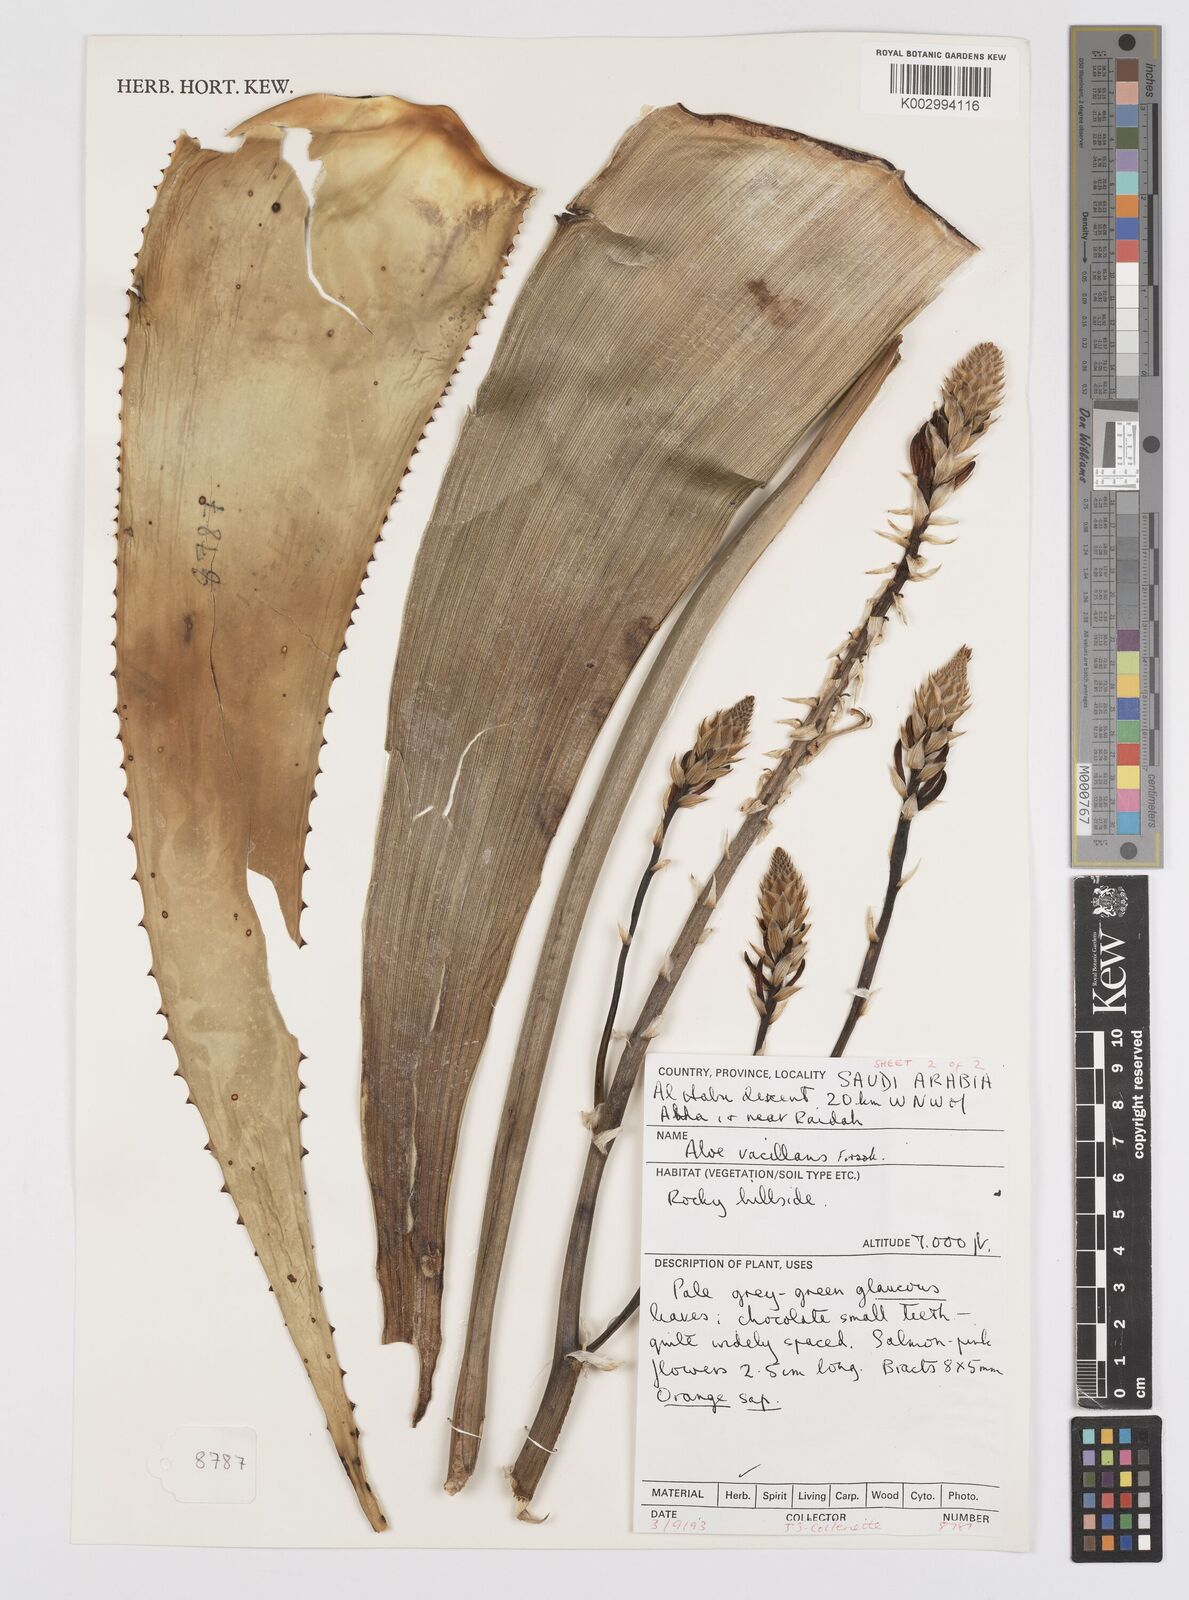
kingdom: Plantae
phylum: Tracheophyta
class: Liliopsida
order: Asparagales
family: Asphodelaceae
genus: Aloe
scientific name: Aloe vacillans
